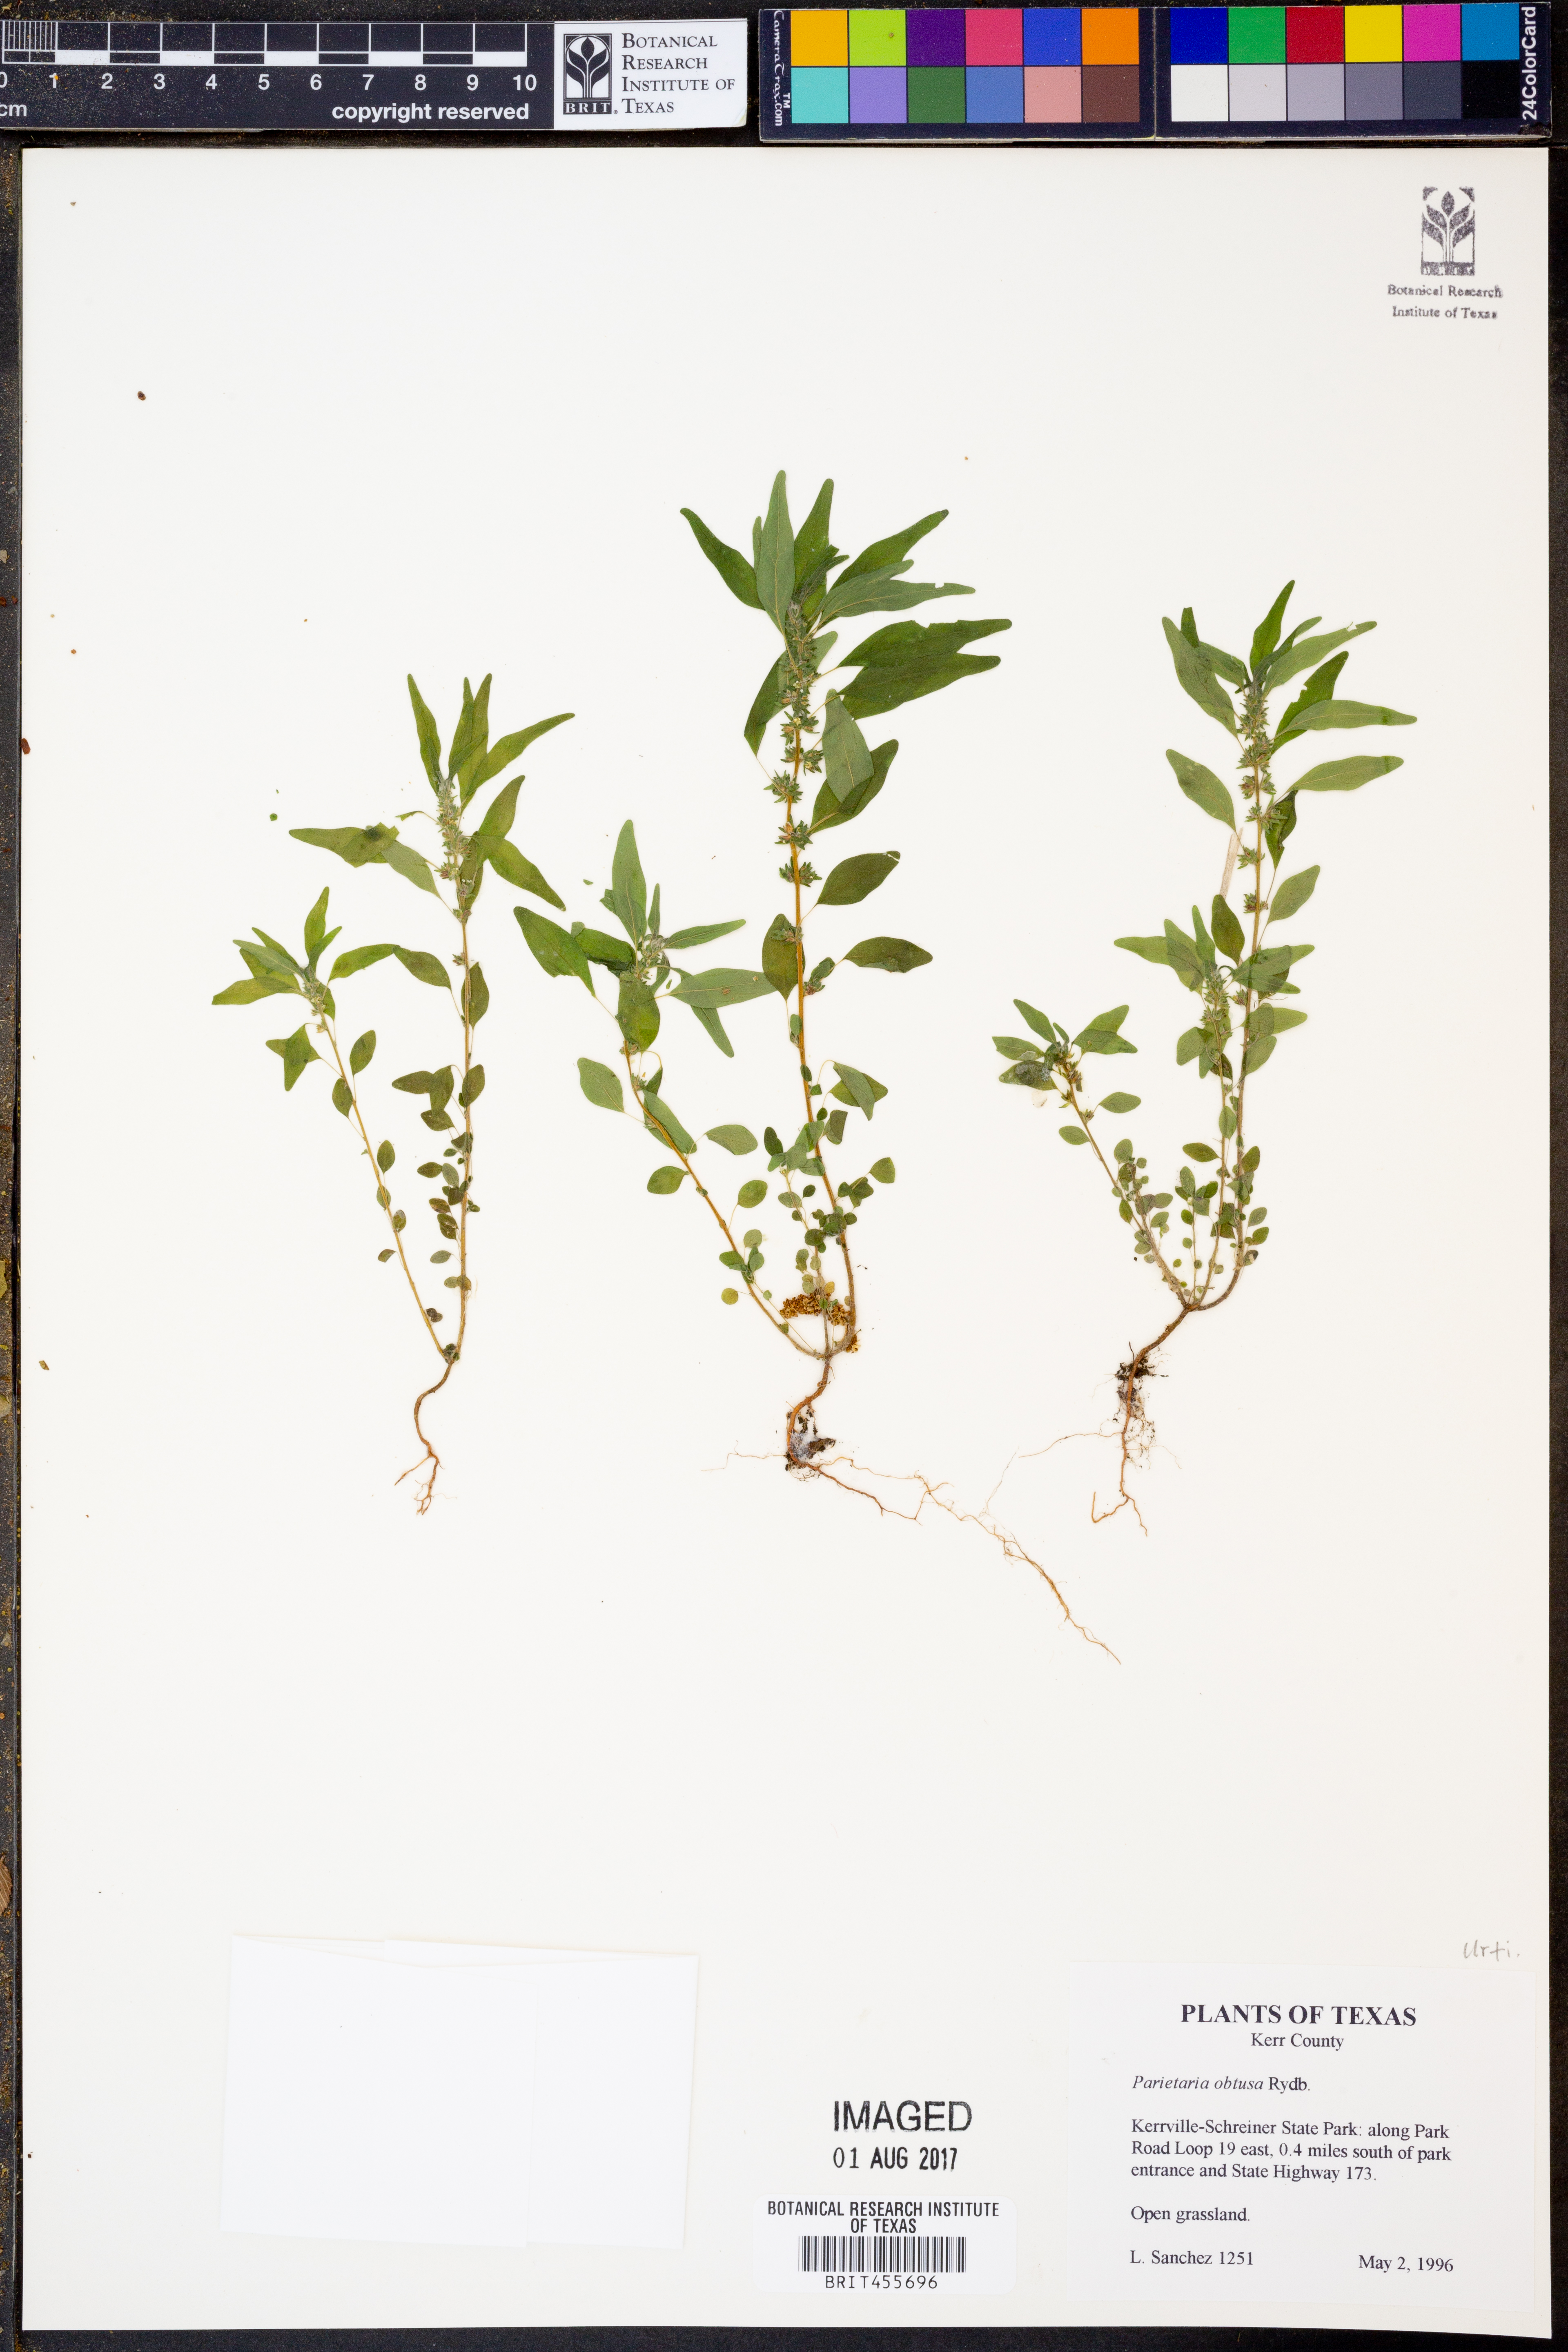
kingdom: Plantae
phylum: Tracheophyta
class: Magnoliopsida
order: Rosales
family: Urticaceae
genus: Parietaria
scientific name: Parietaria pensylvanica
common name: Pennsylvania pellitory
